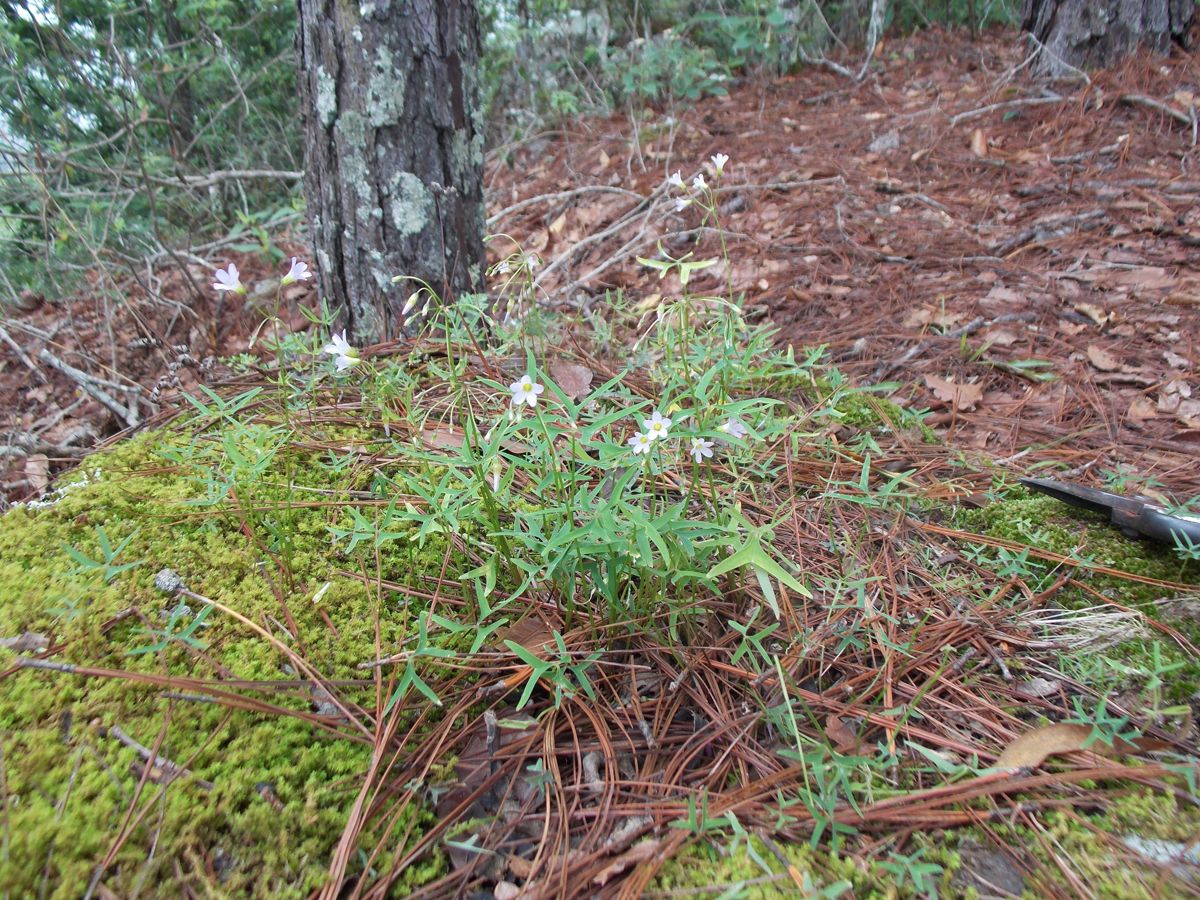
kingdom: Plantae
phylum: Tracheophyta
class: Magnoliopsida
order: Oxalidales
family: Oxalidaceae
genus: Oxalis
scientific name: Oxalis latifolia
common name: Garden pink-sorrel
